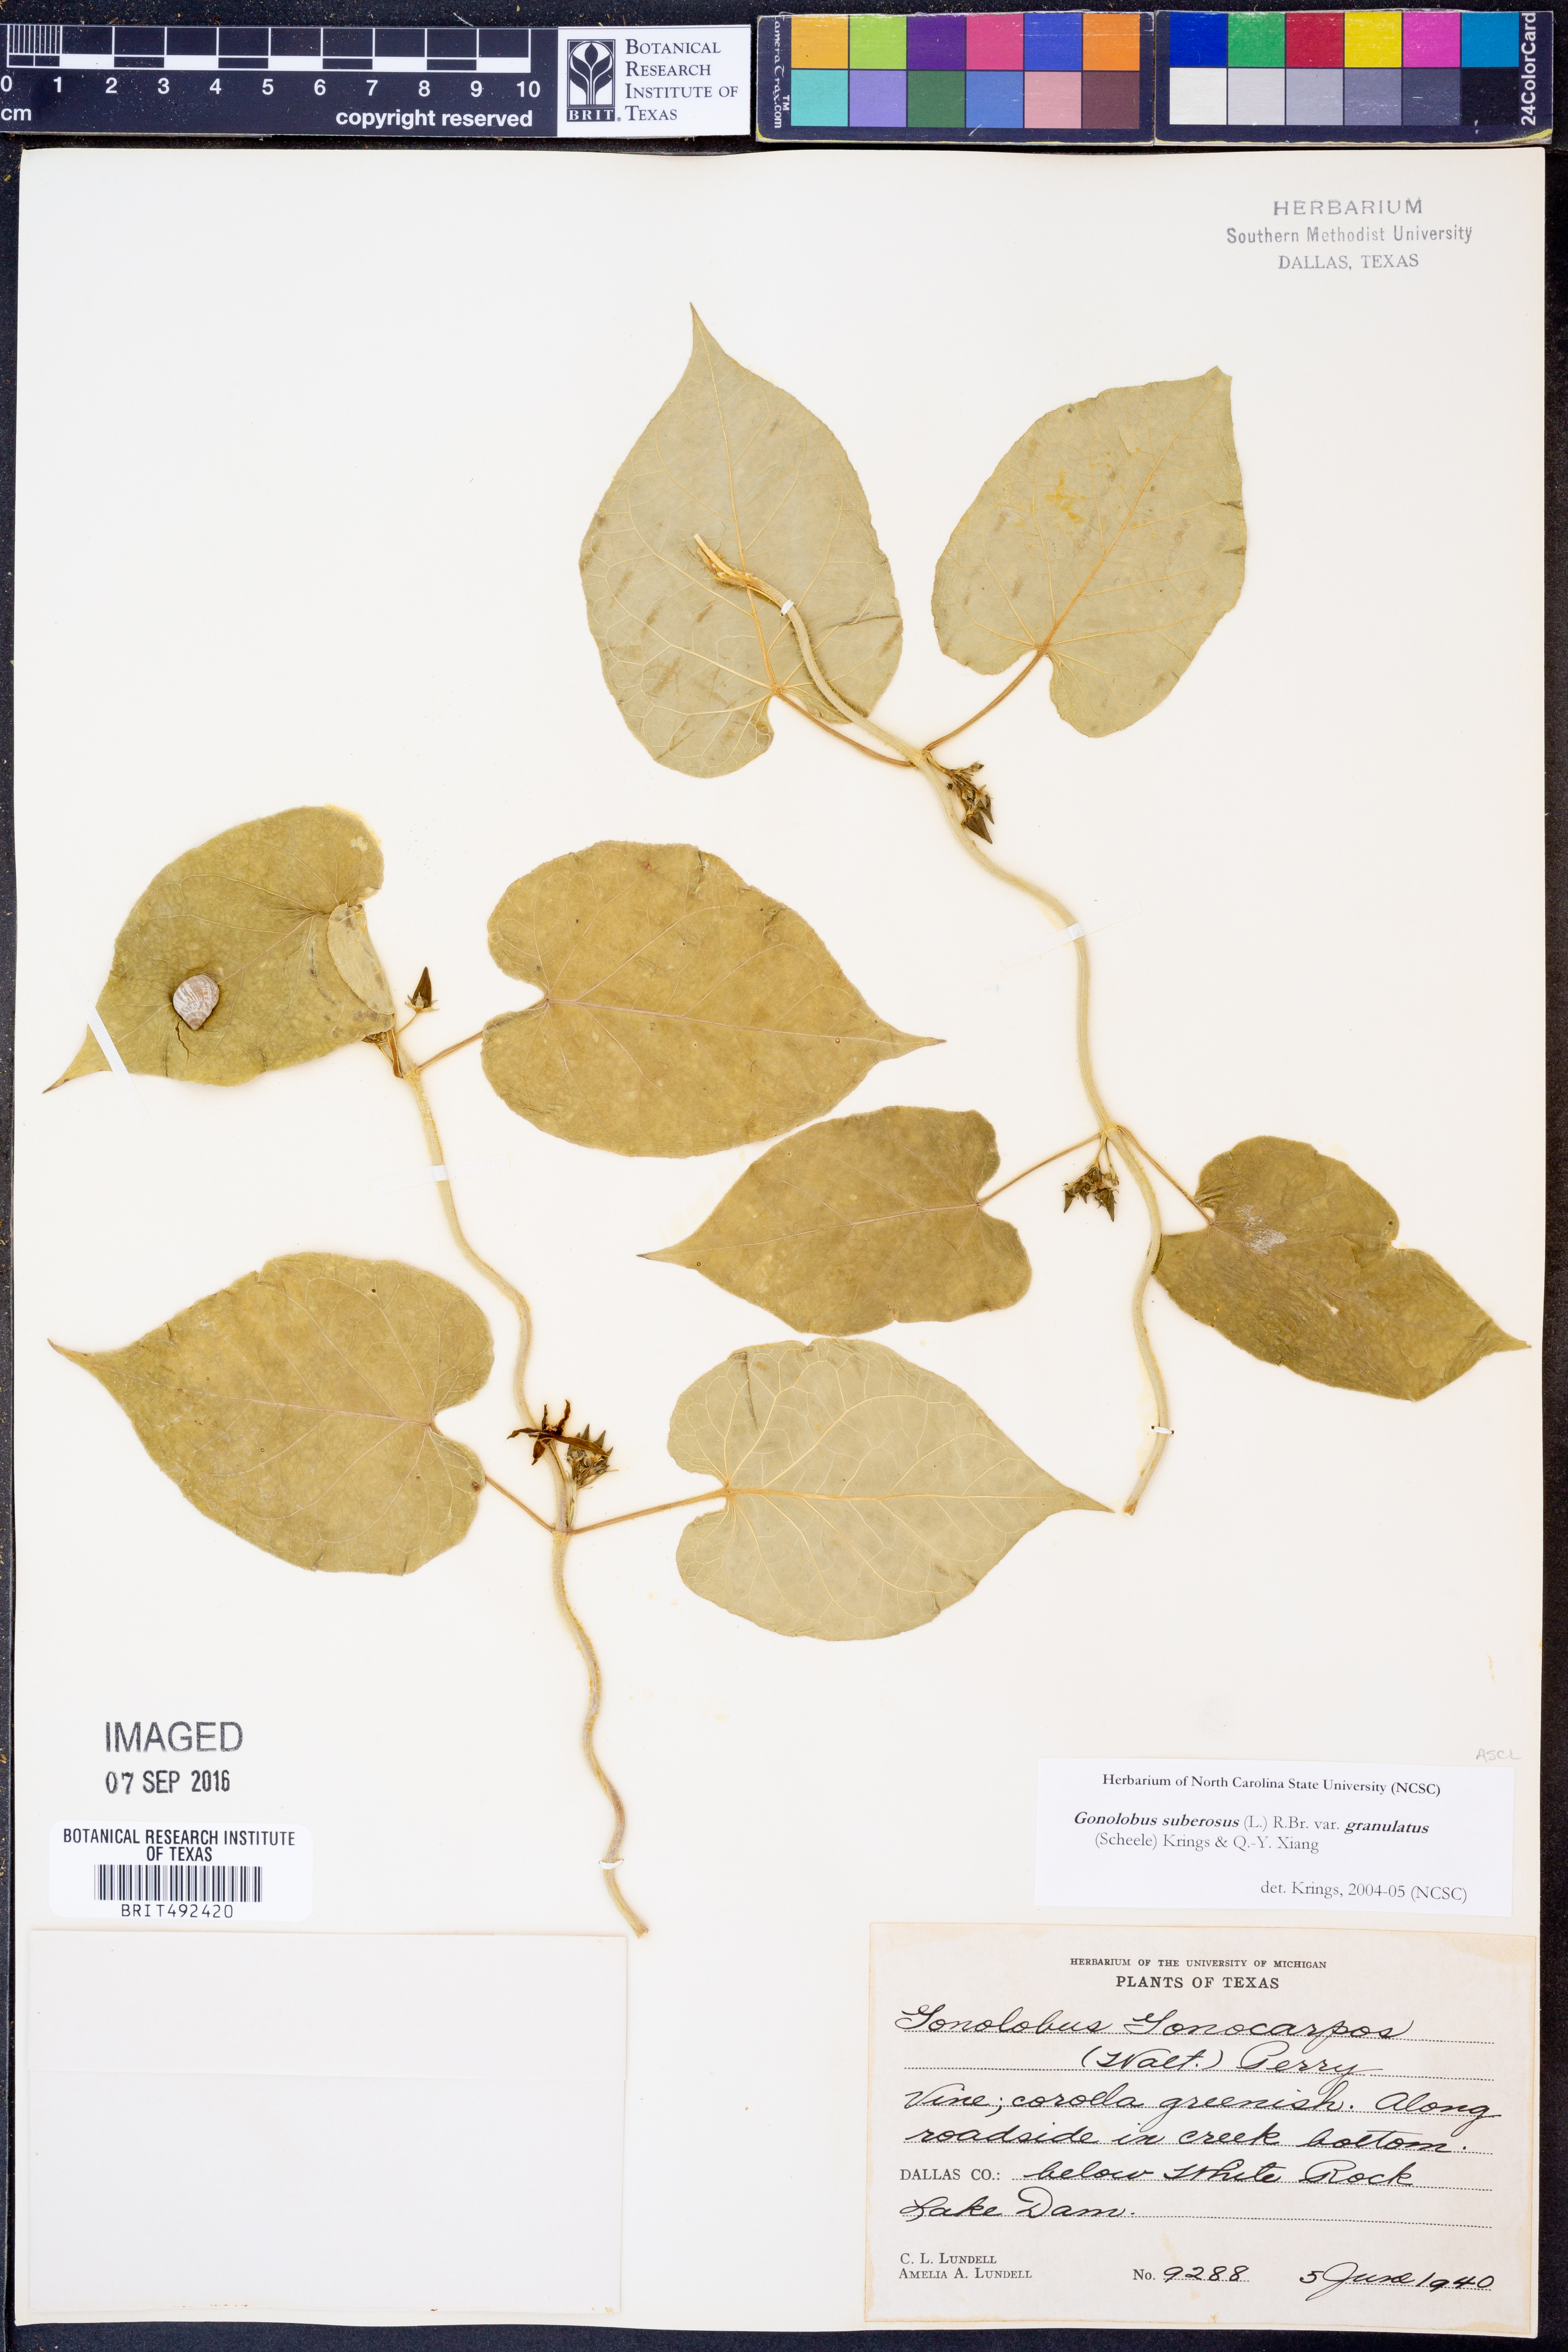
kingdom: Plantae
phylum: Tracheophyta
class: Magnoliopsida
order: Gentianales
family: Apocynaceae
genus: Gonolobus
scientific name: Gonolobus suberosus
